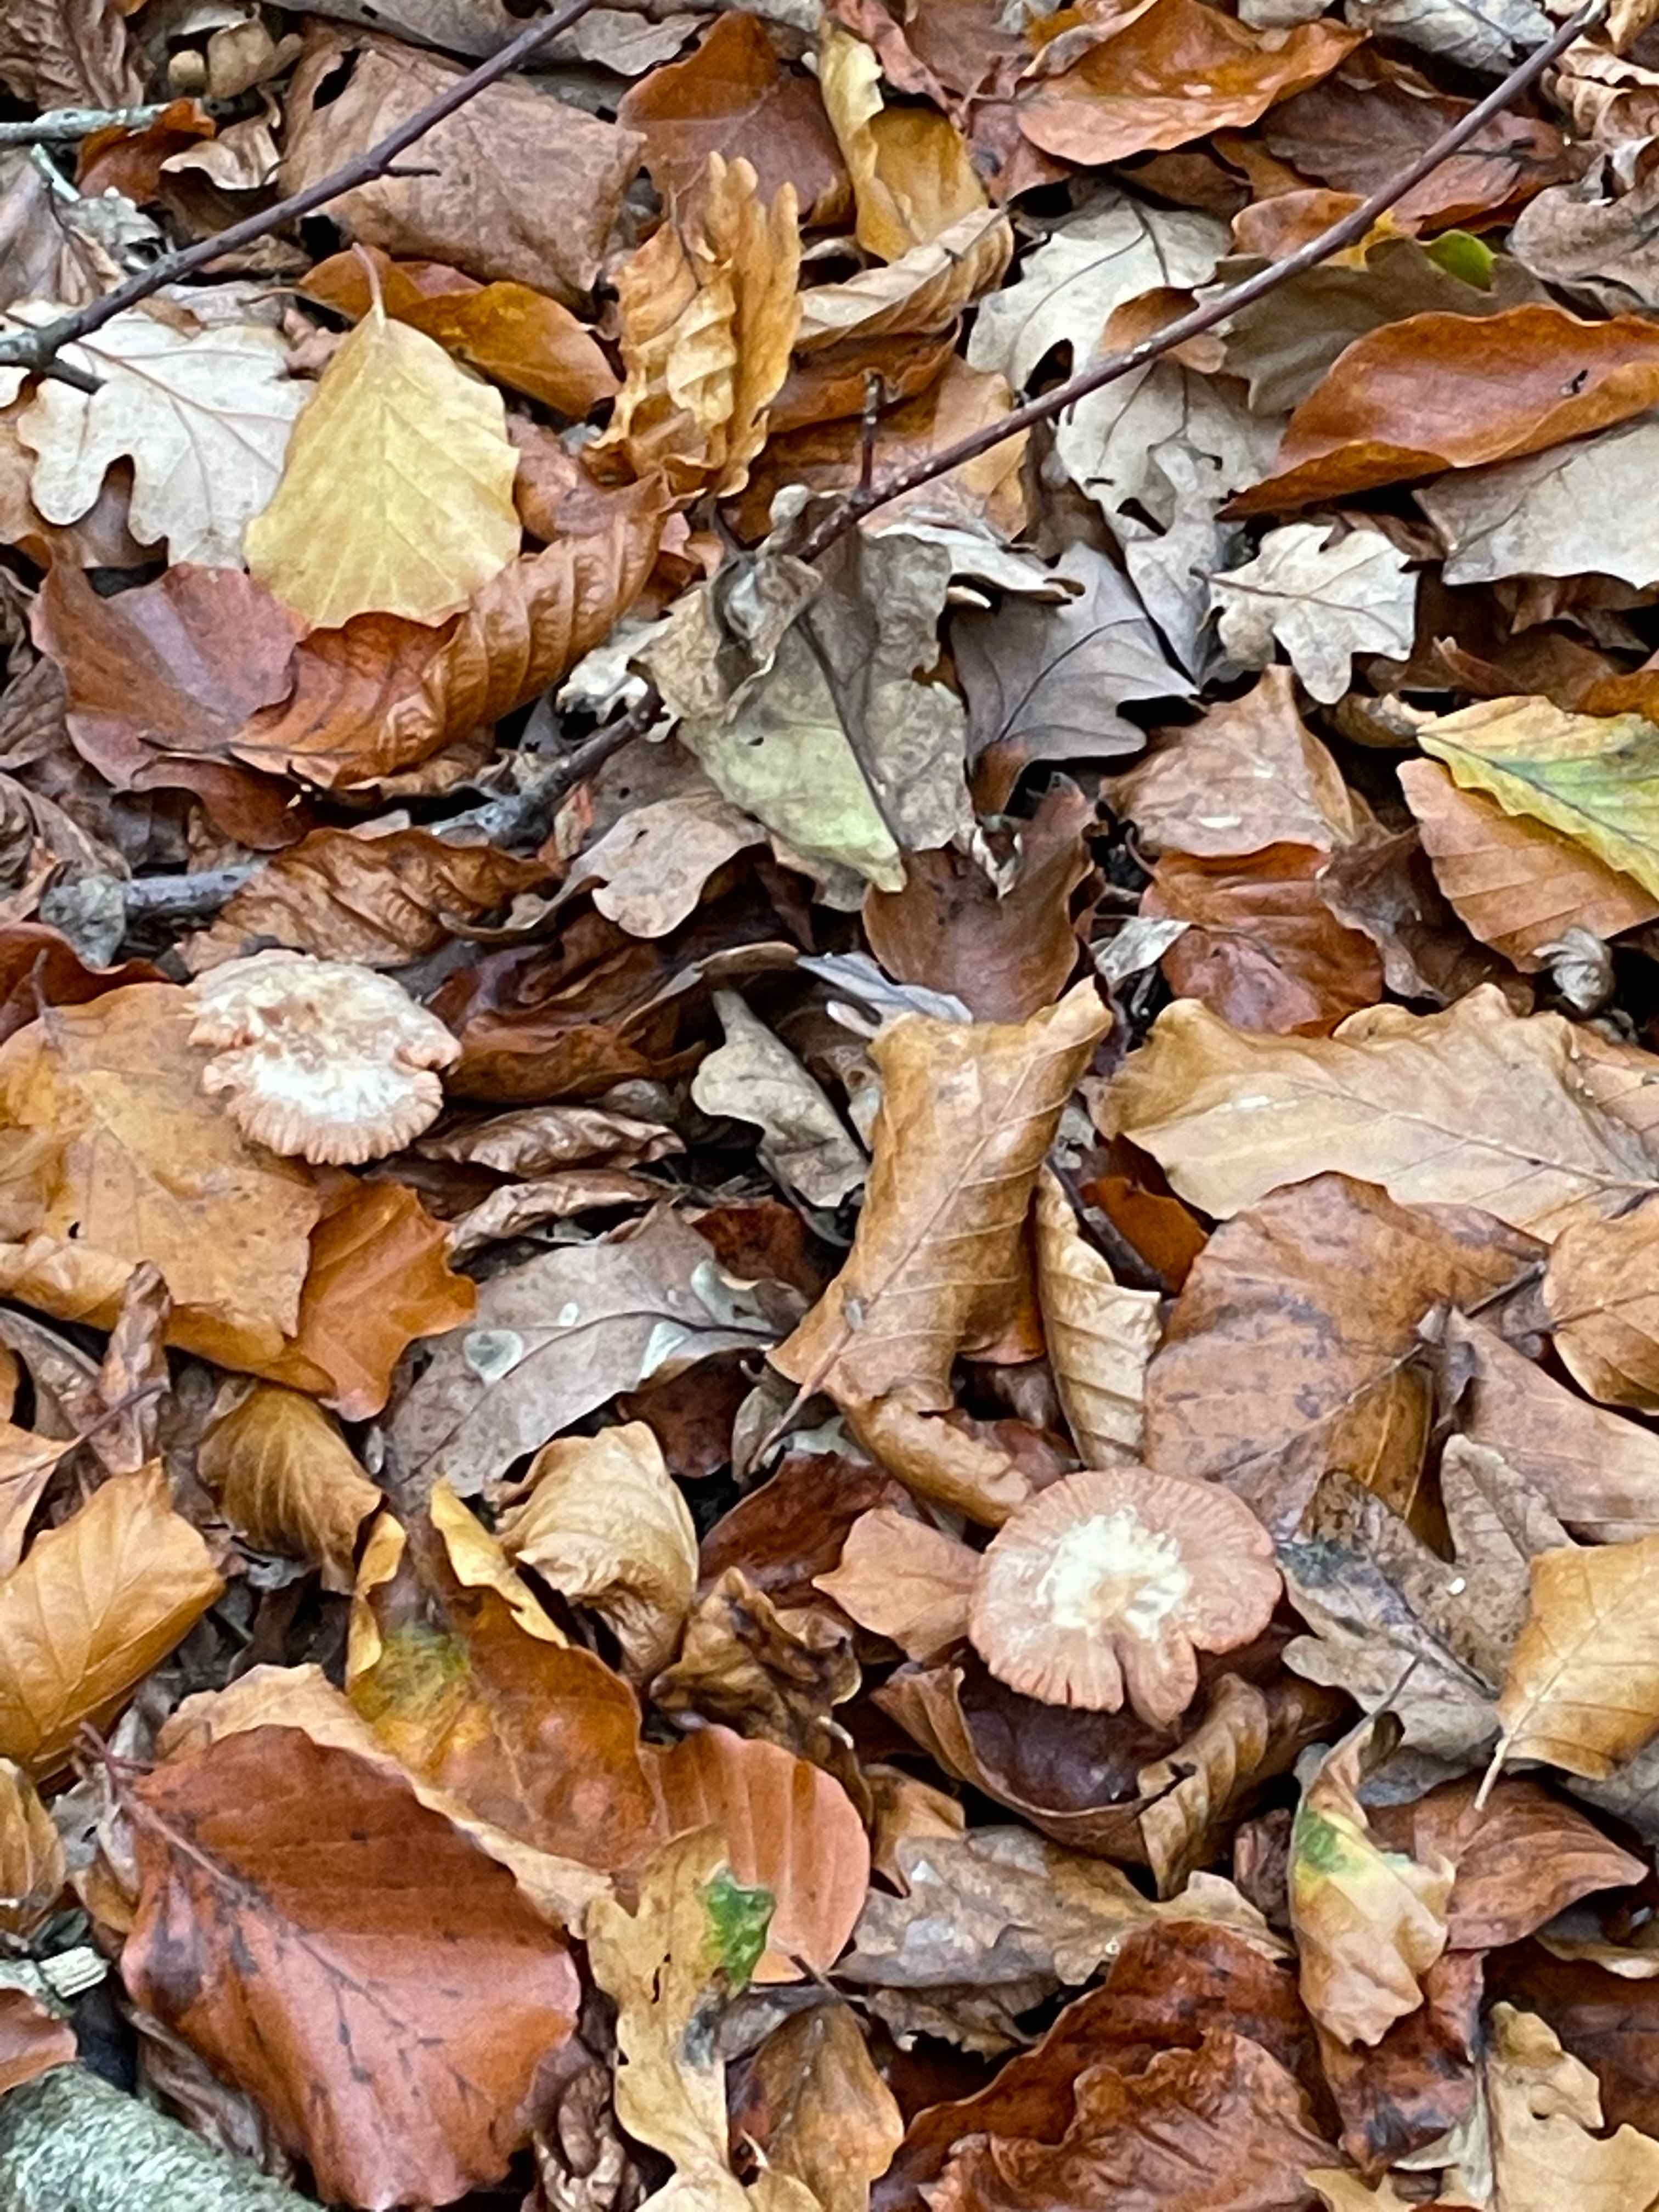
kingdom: Fungi
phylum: Basidiomycota
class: Agaricomycetes
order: Agaricales
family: Hydnangiaceae
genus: Laccaria
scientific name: Laccaria laccata
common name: rød ametysthat
